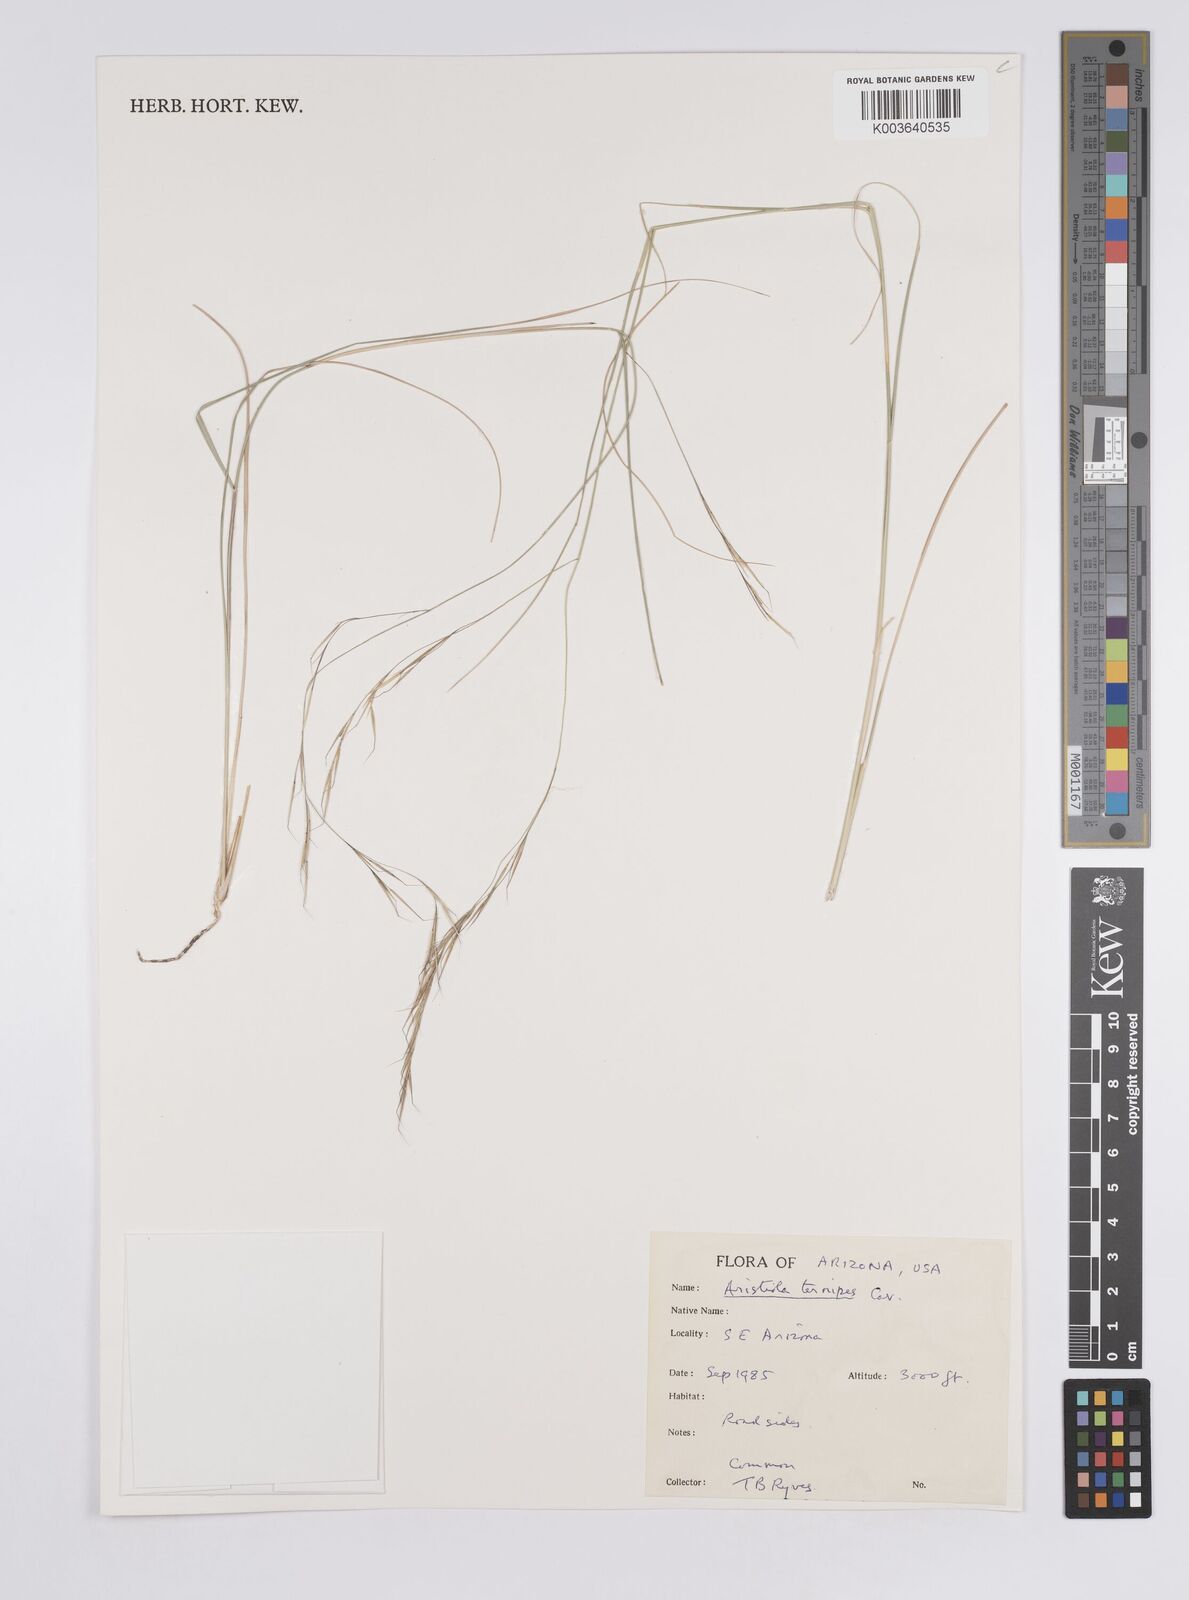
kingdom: Plantae
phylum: Tracheophyta
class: Liliopsida
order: Poales
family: Poaceae
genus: Aristida
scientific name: Aristida ternipes
